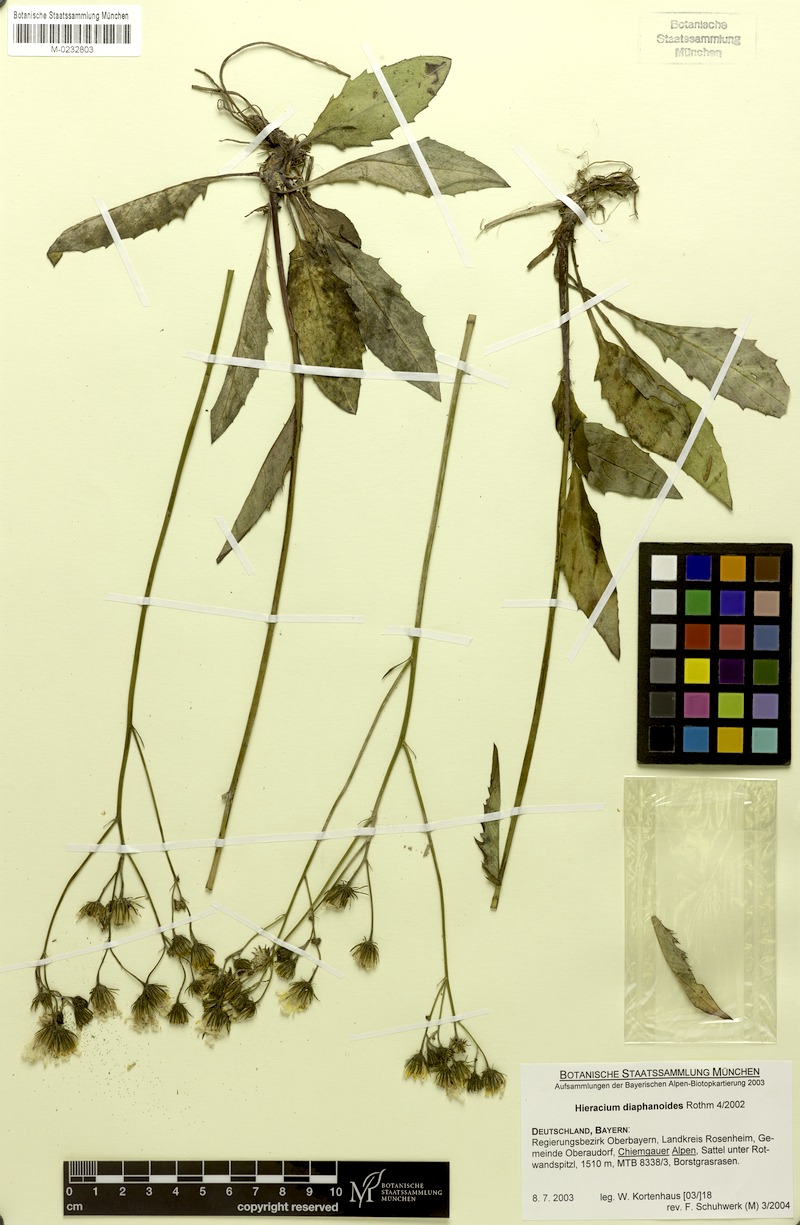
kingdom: Plantae
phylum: Tracheophyta
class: Magnoliopsida
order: Asterales
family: Asteraceae
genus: Hieracium
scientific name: Hieracium diaphanoides
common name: Fine-bracted hawkweed
